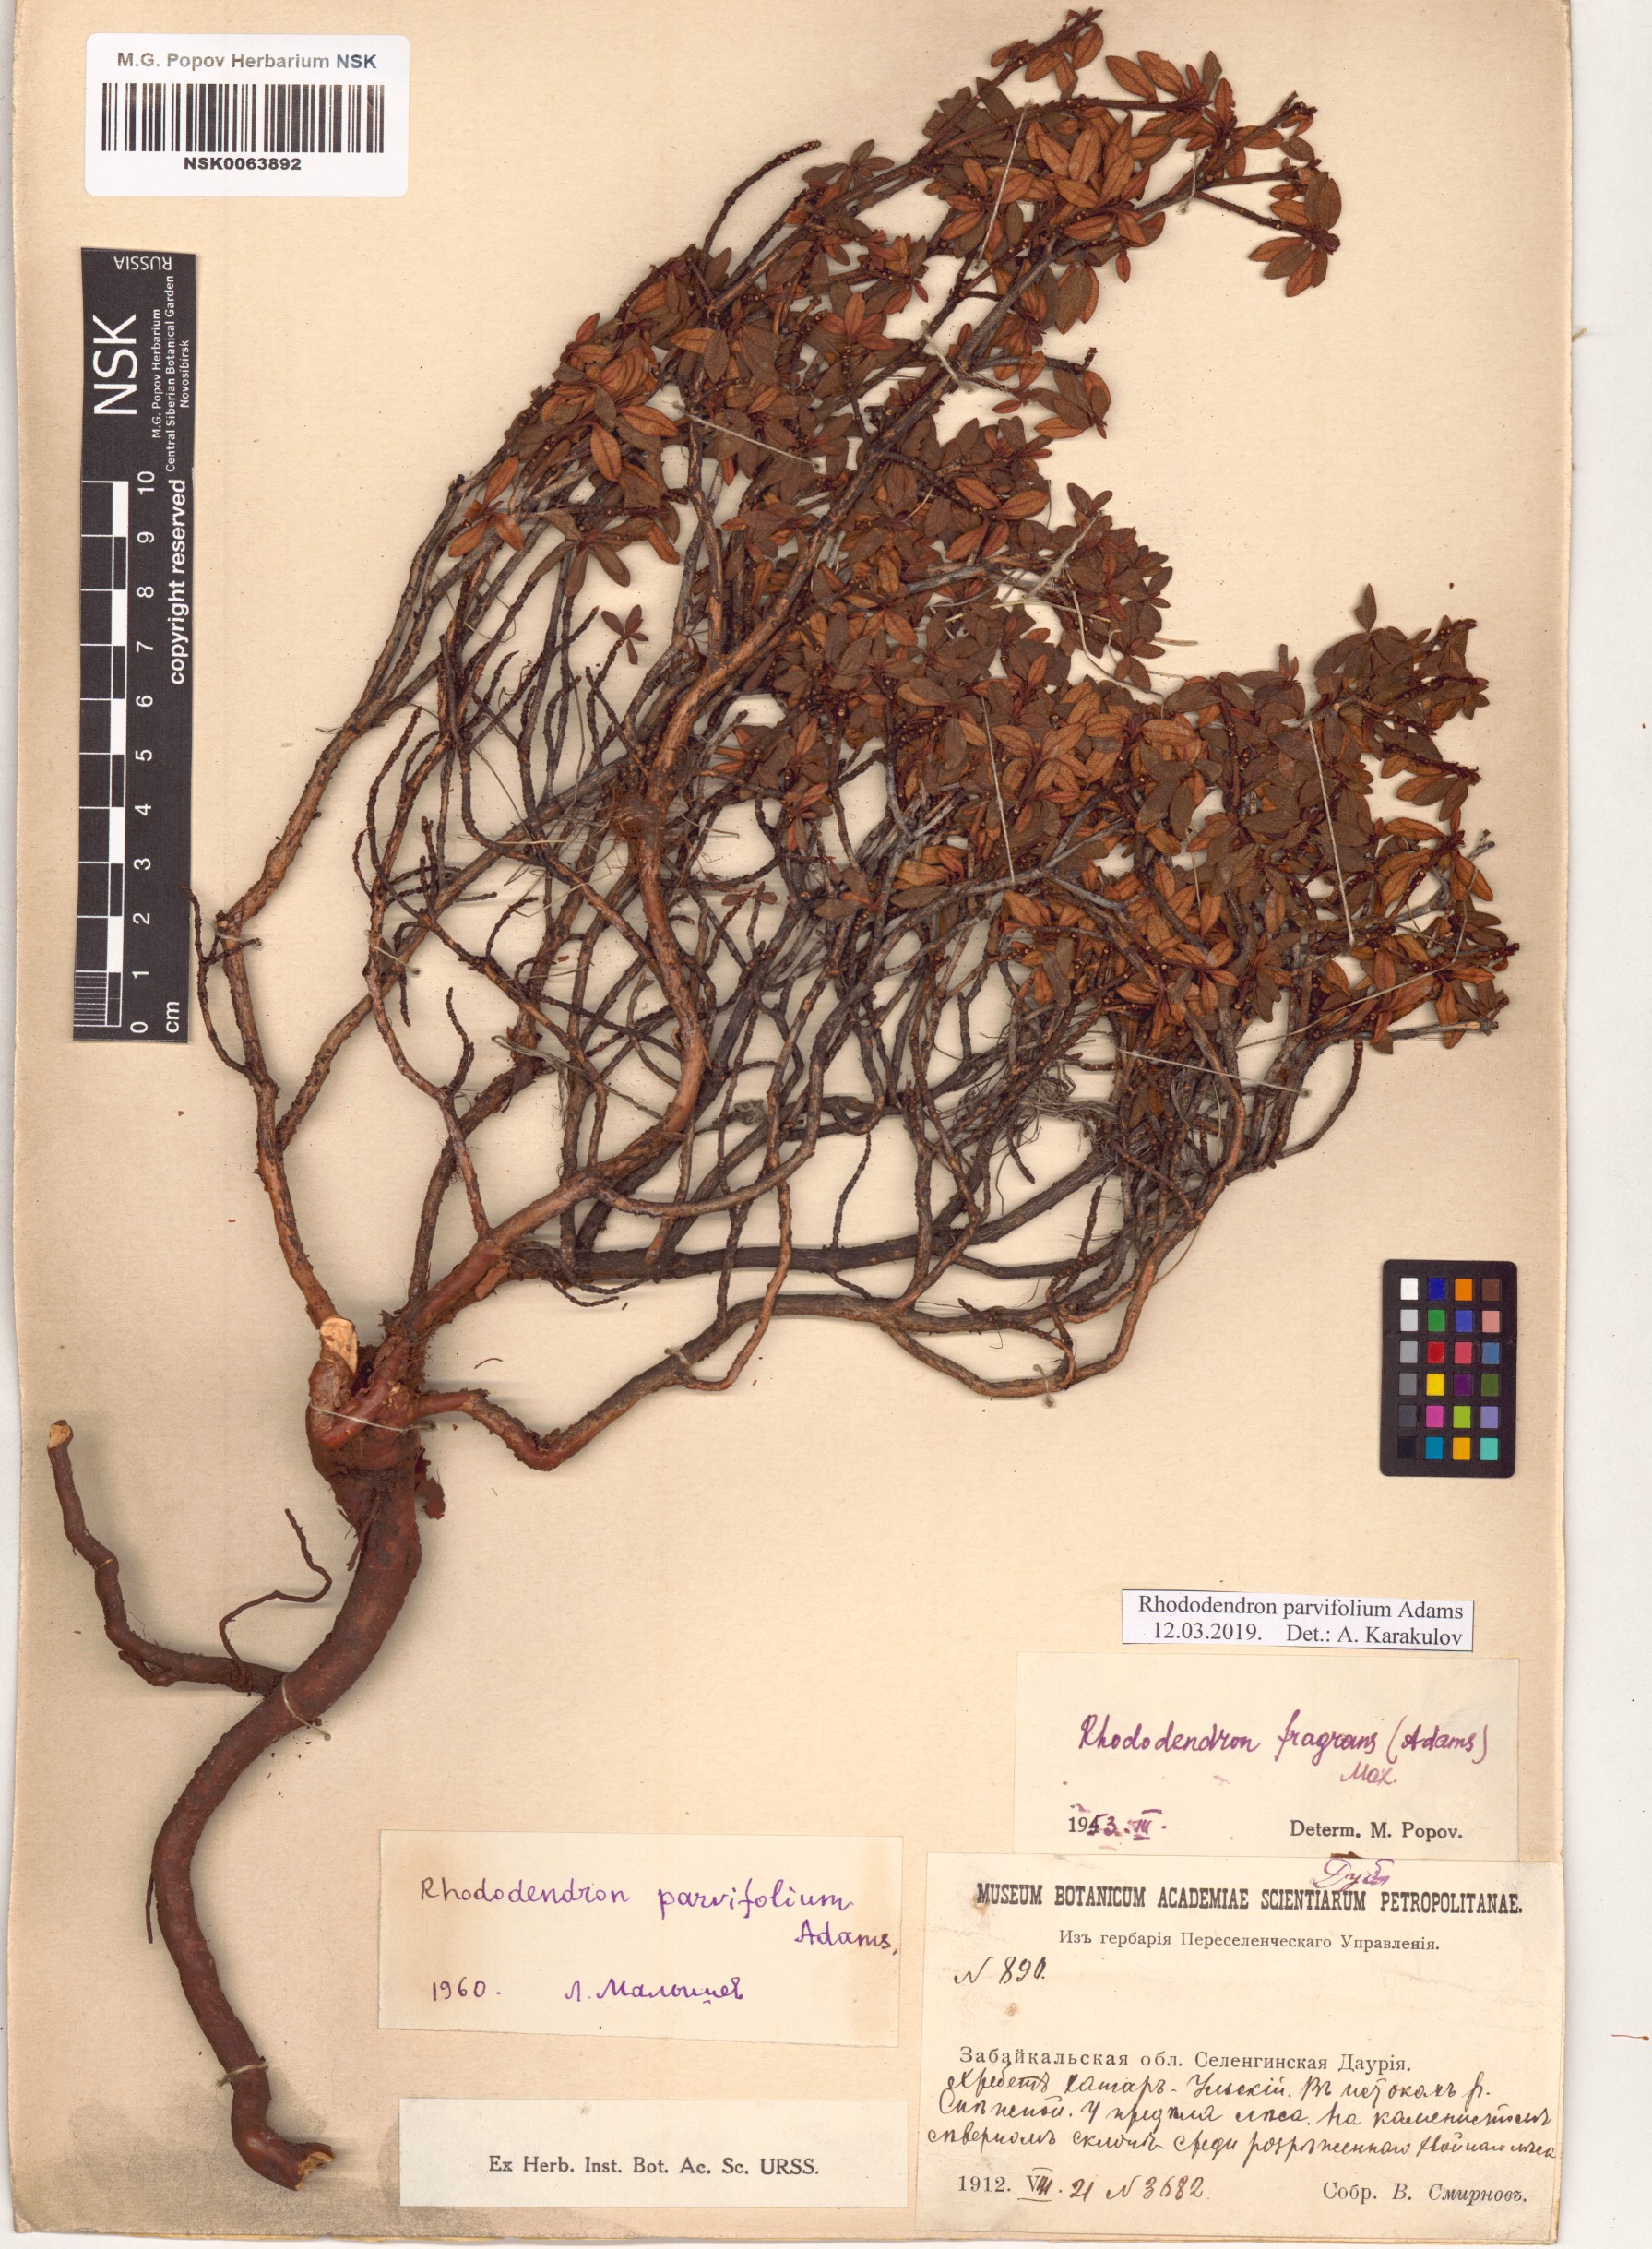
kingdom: Plantae
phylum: Tracheophyta
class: Magnoliopsida
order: Ericales
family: Ericaceae
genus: Rhododendron
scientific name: Rhododendron parvifolium
